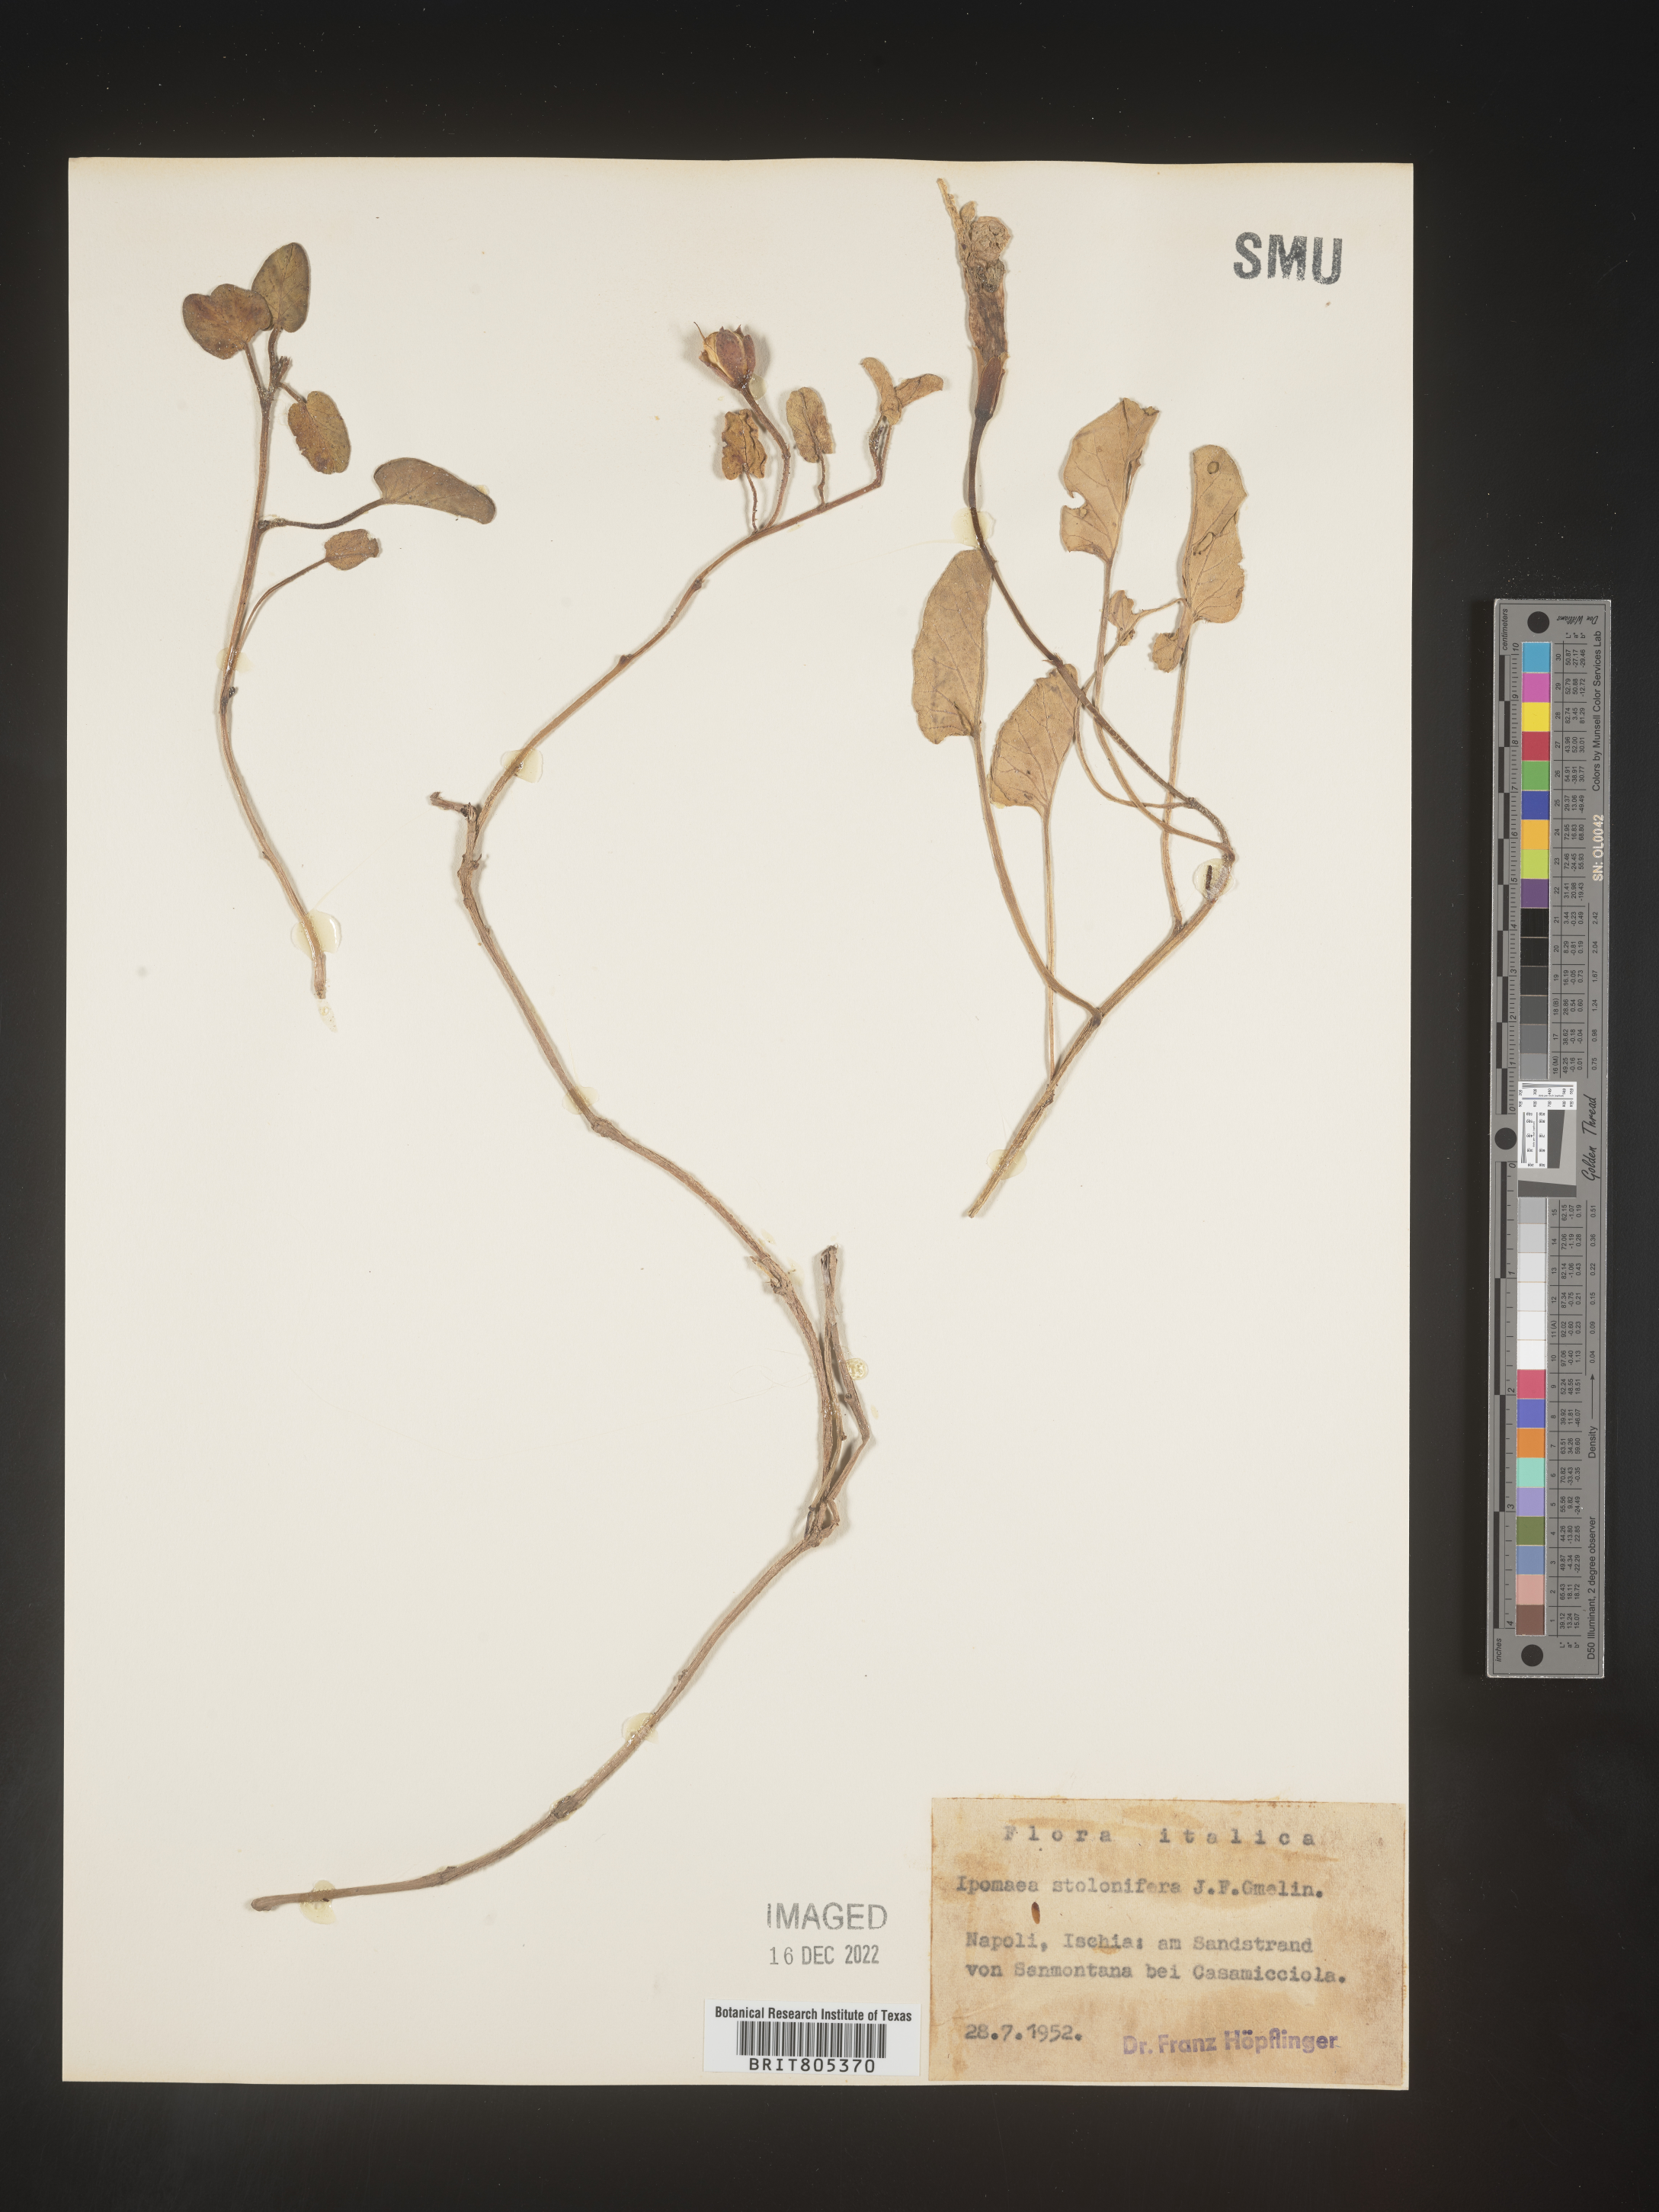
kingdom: Plantae
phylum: Tracheophyta
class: Magnoliopsida
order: Solanales
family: Convolvulaceae
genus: Ipomoea
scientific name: Ipomoea
